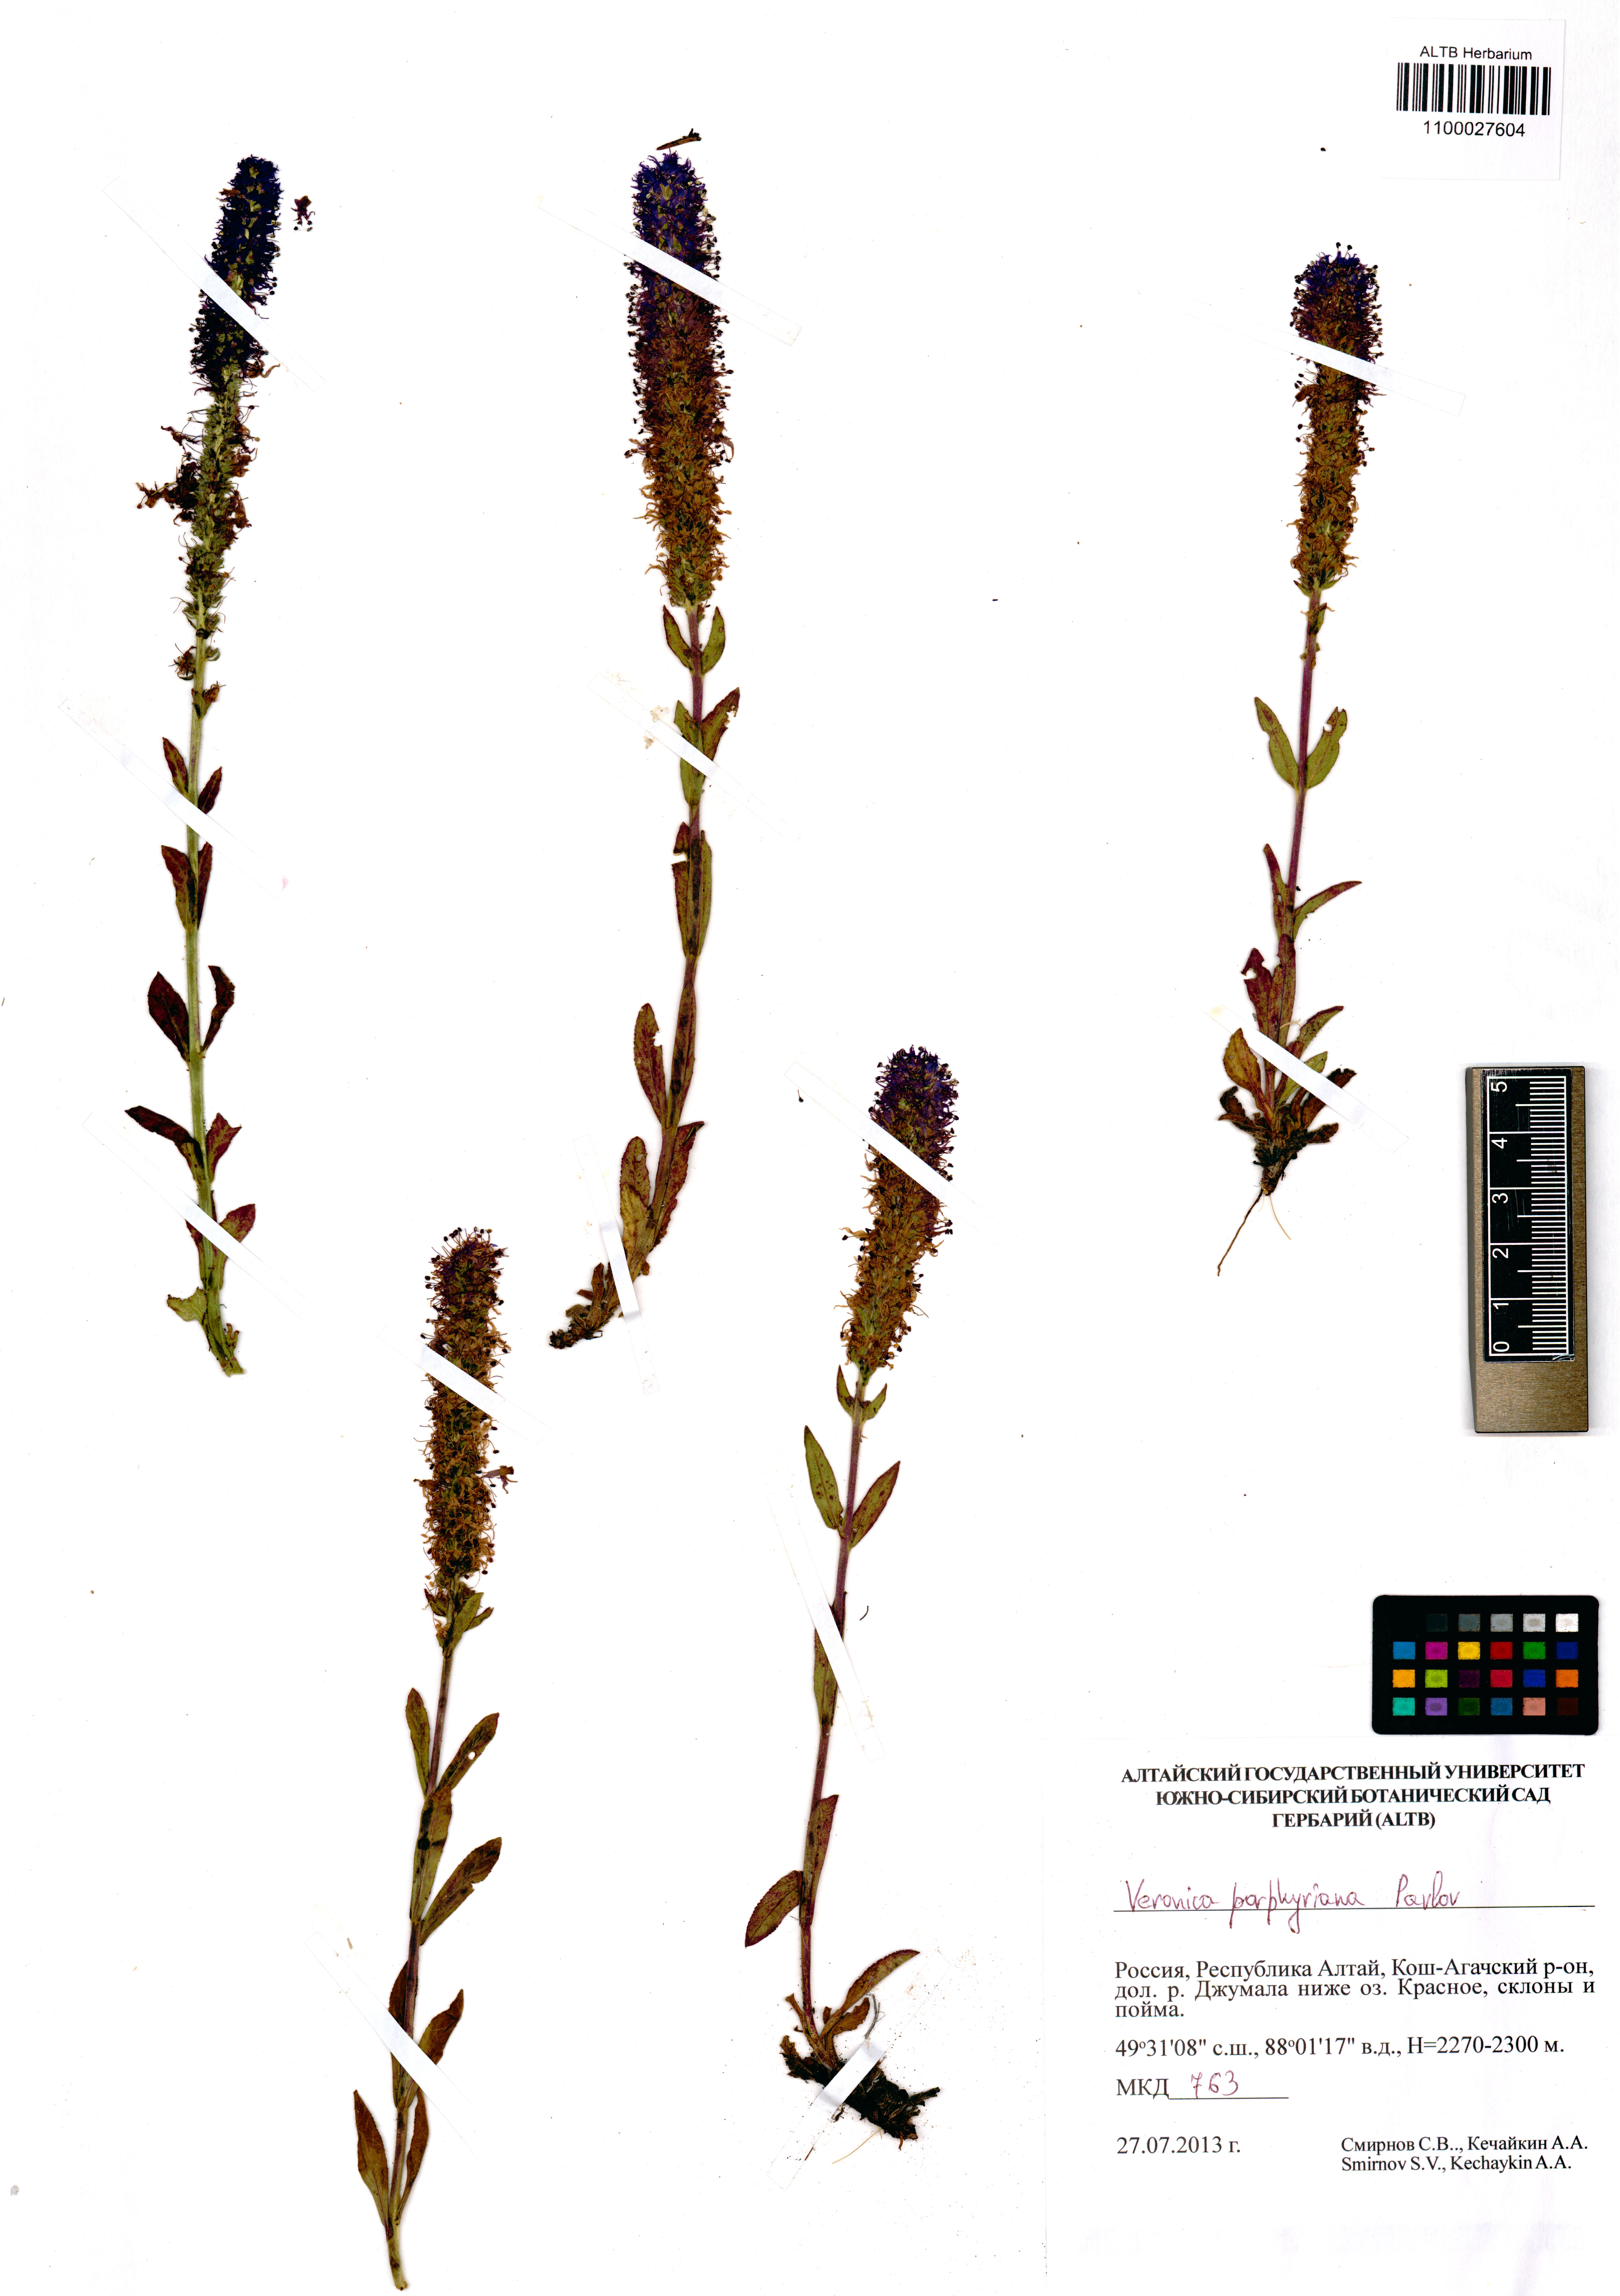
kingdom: Plantae
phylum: Tracheophyta
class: Magnoliopsida
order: Lamiales
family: Plantaginaceae
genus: Veronica
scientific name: Veronica porphyriana
